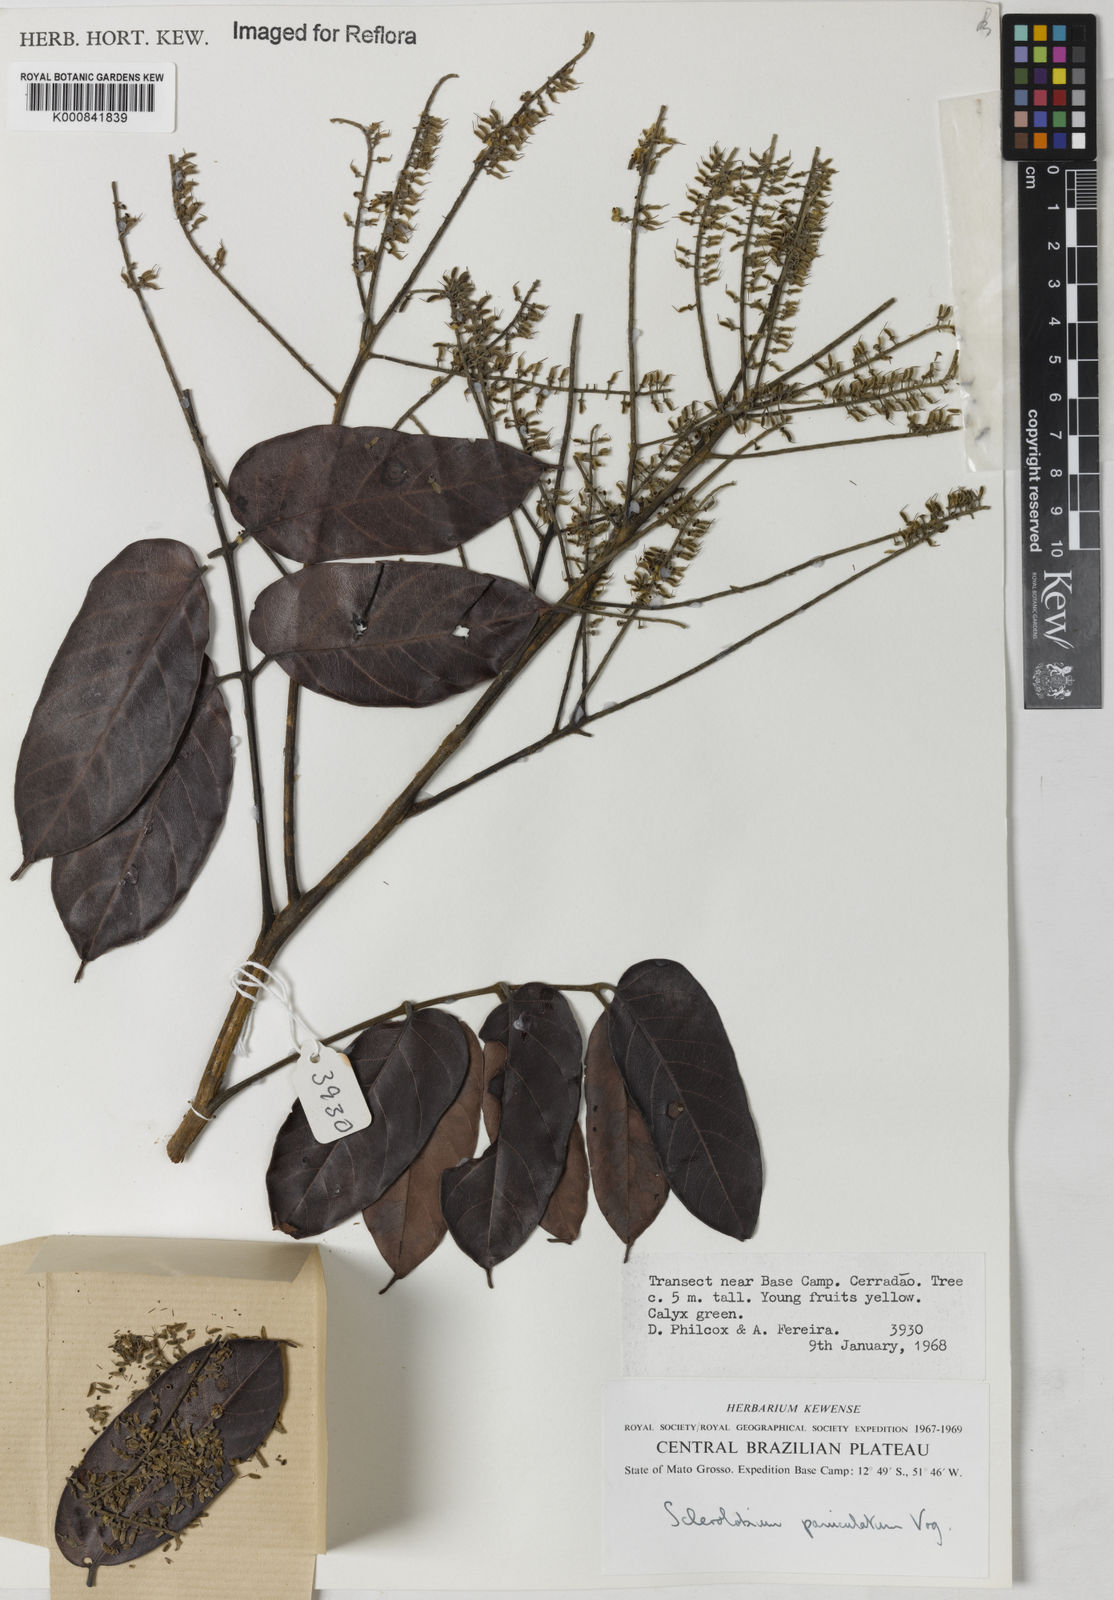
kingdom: Plantae
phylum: Tracheophyta
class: Magnoliopsida
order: Fabales
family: Fabaceae
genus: Tachigali
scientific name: Tachigali vulgaris
